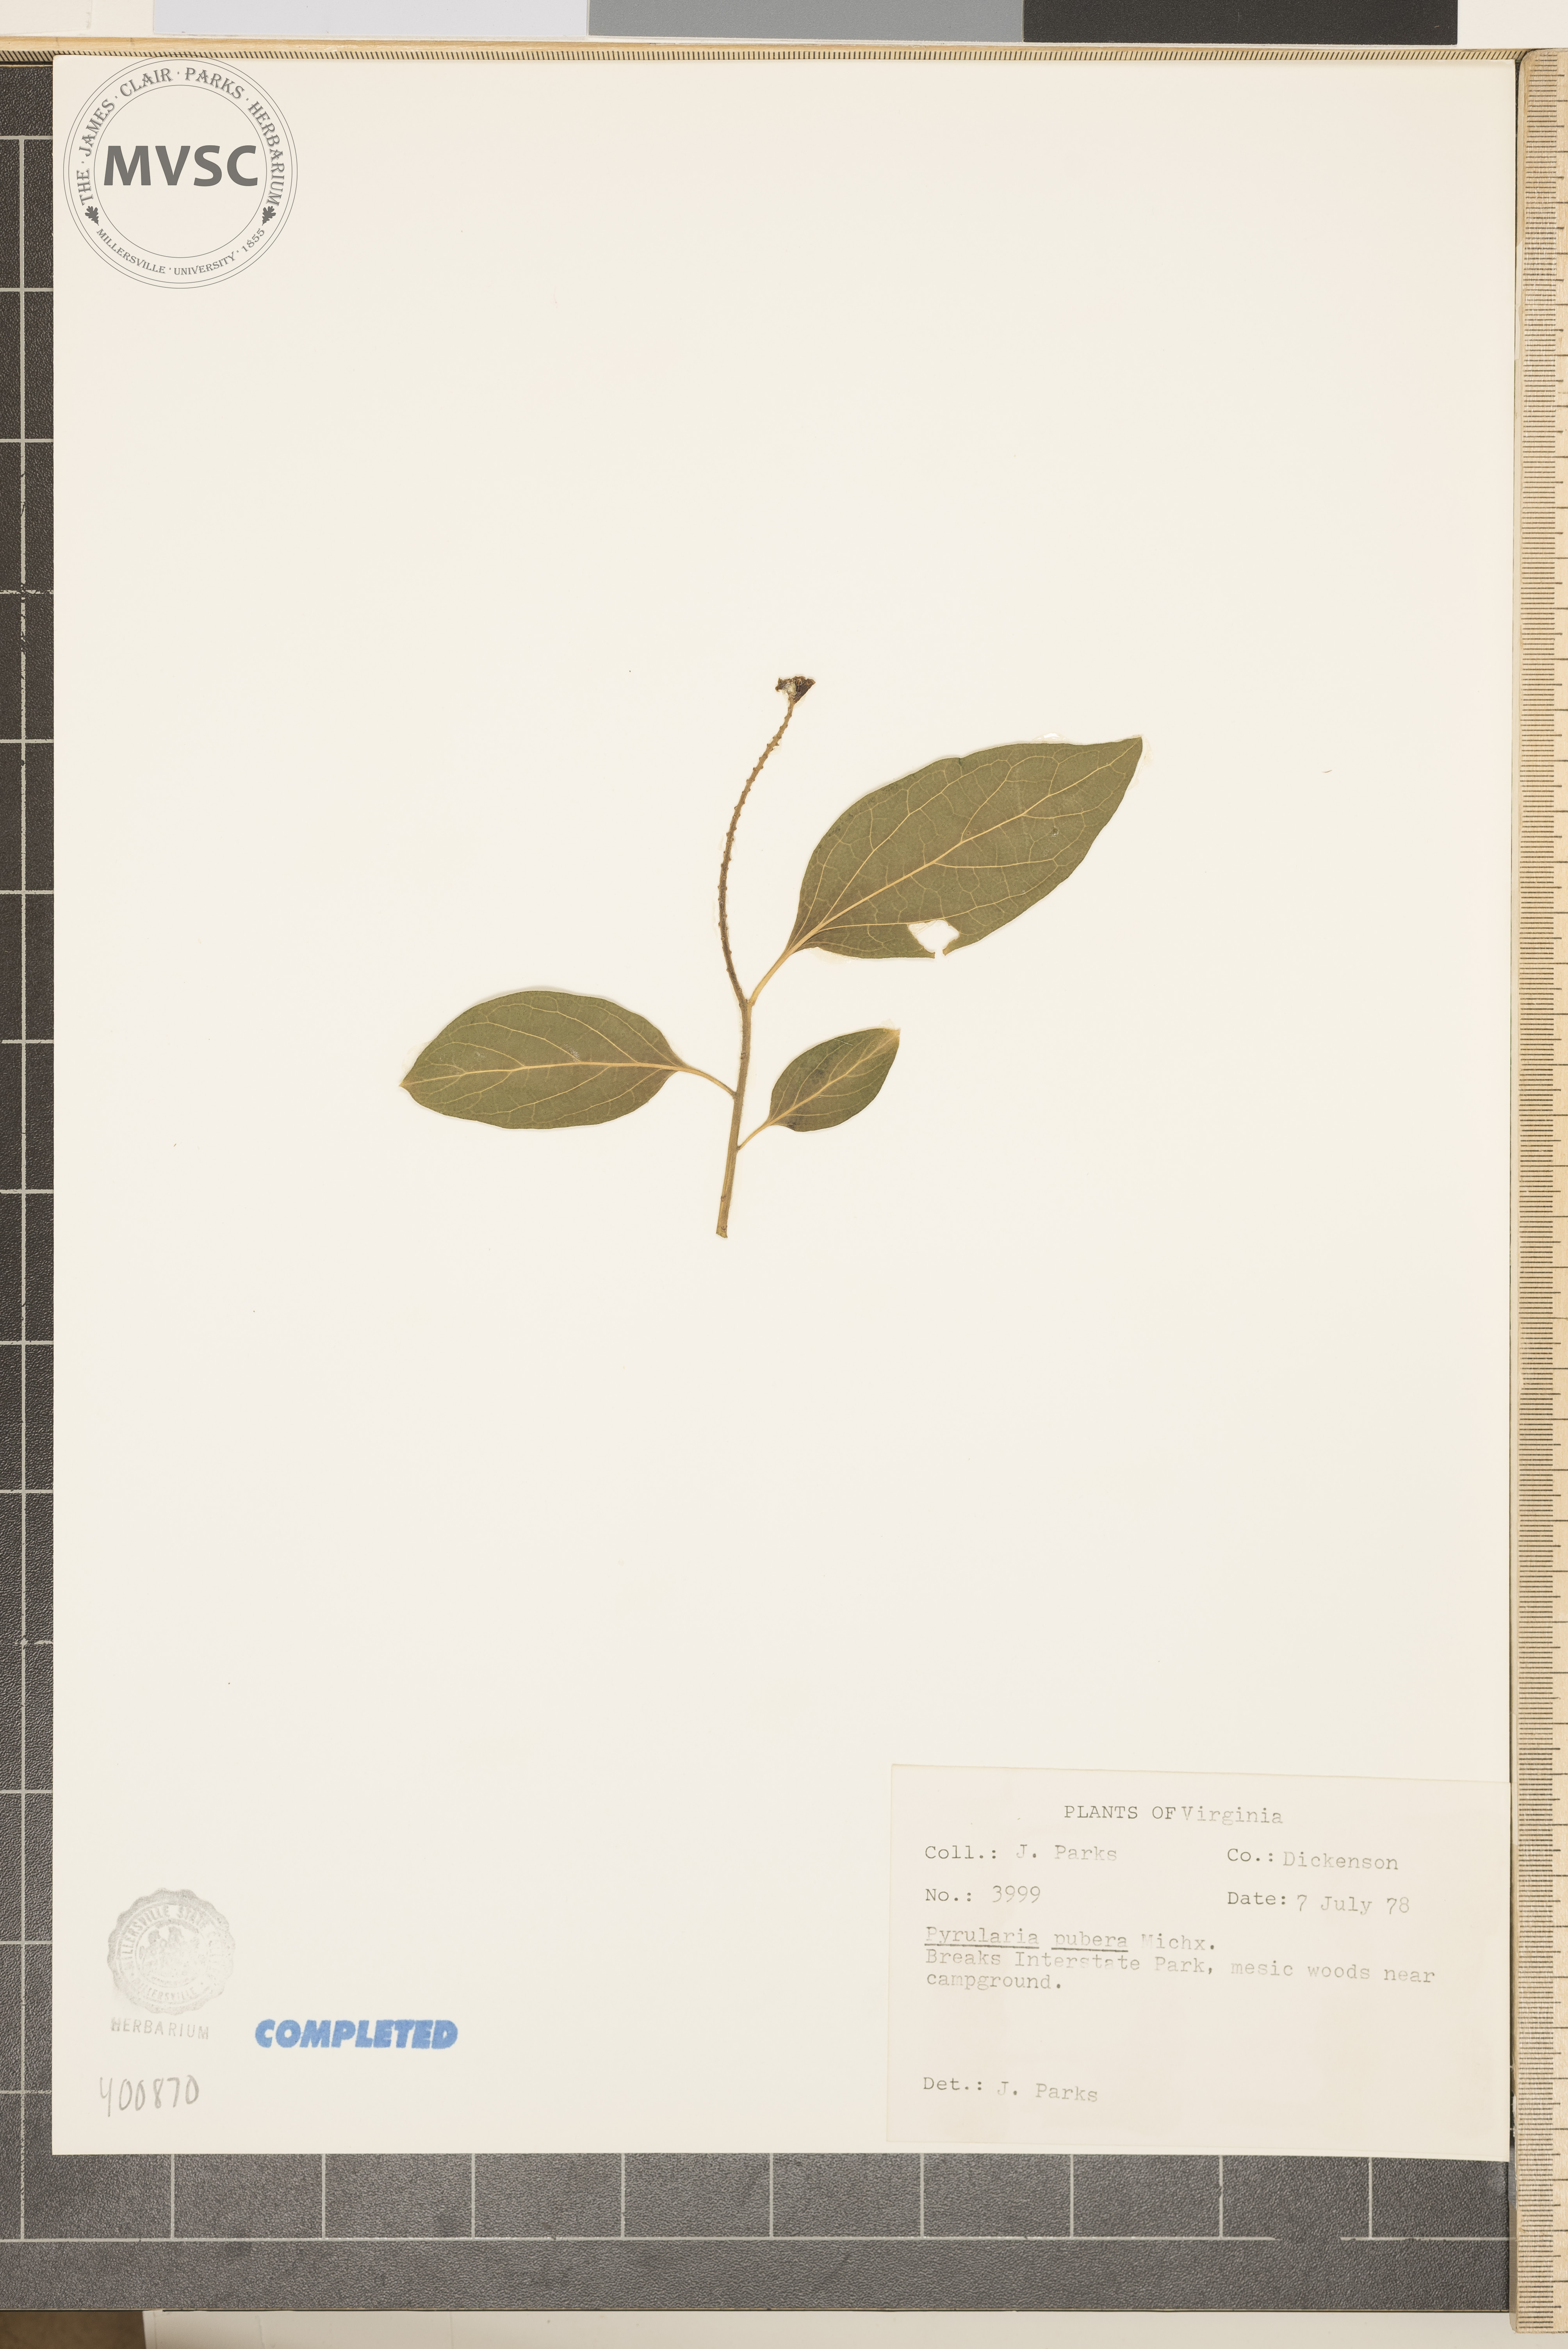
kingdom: Plantae
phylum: Tracheophyta
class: Magnoliopsida
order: Santalales
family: Cervantesiaceae
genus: Pyrularia
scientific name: Pyrularia pubera
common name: Buffalo nut
